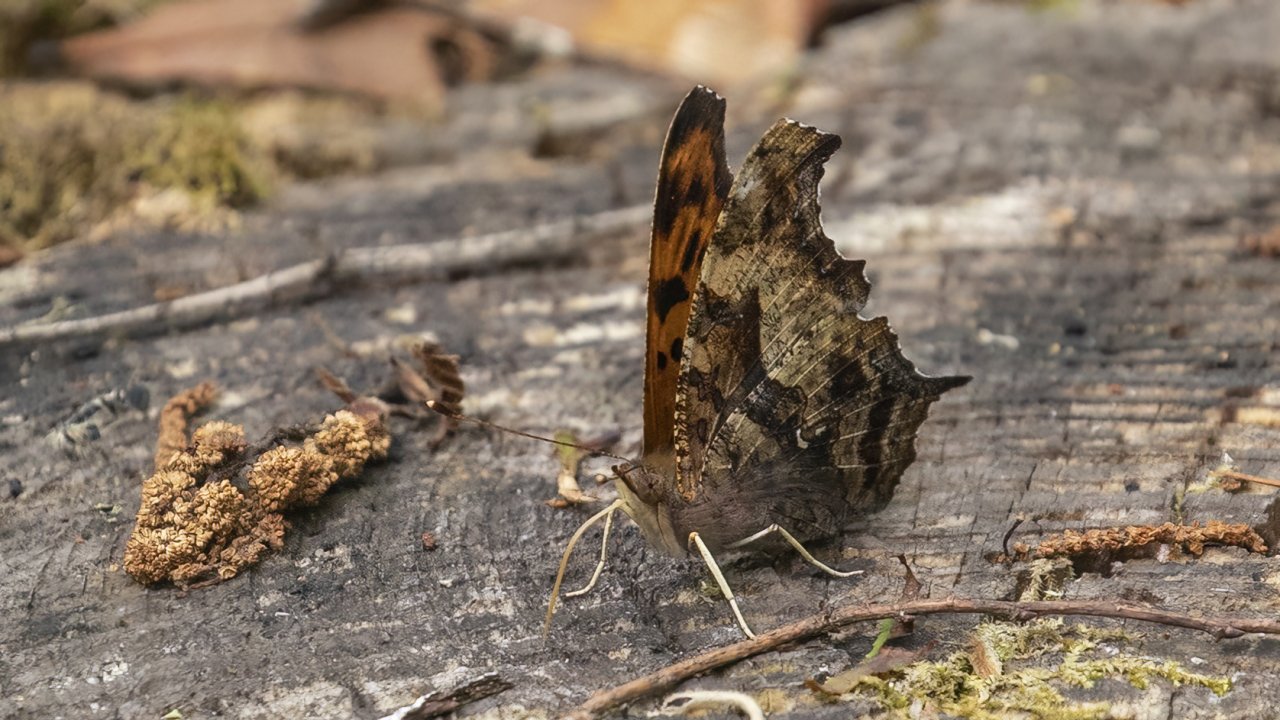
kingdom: Animalia
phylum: Arthropoda
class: Insecta
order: Lepidoptera
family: Nymphalidae
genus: Polygonia
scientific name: Polygonia interrogationis
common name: Question Mark
